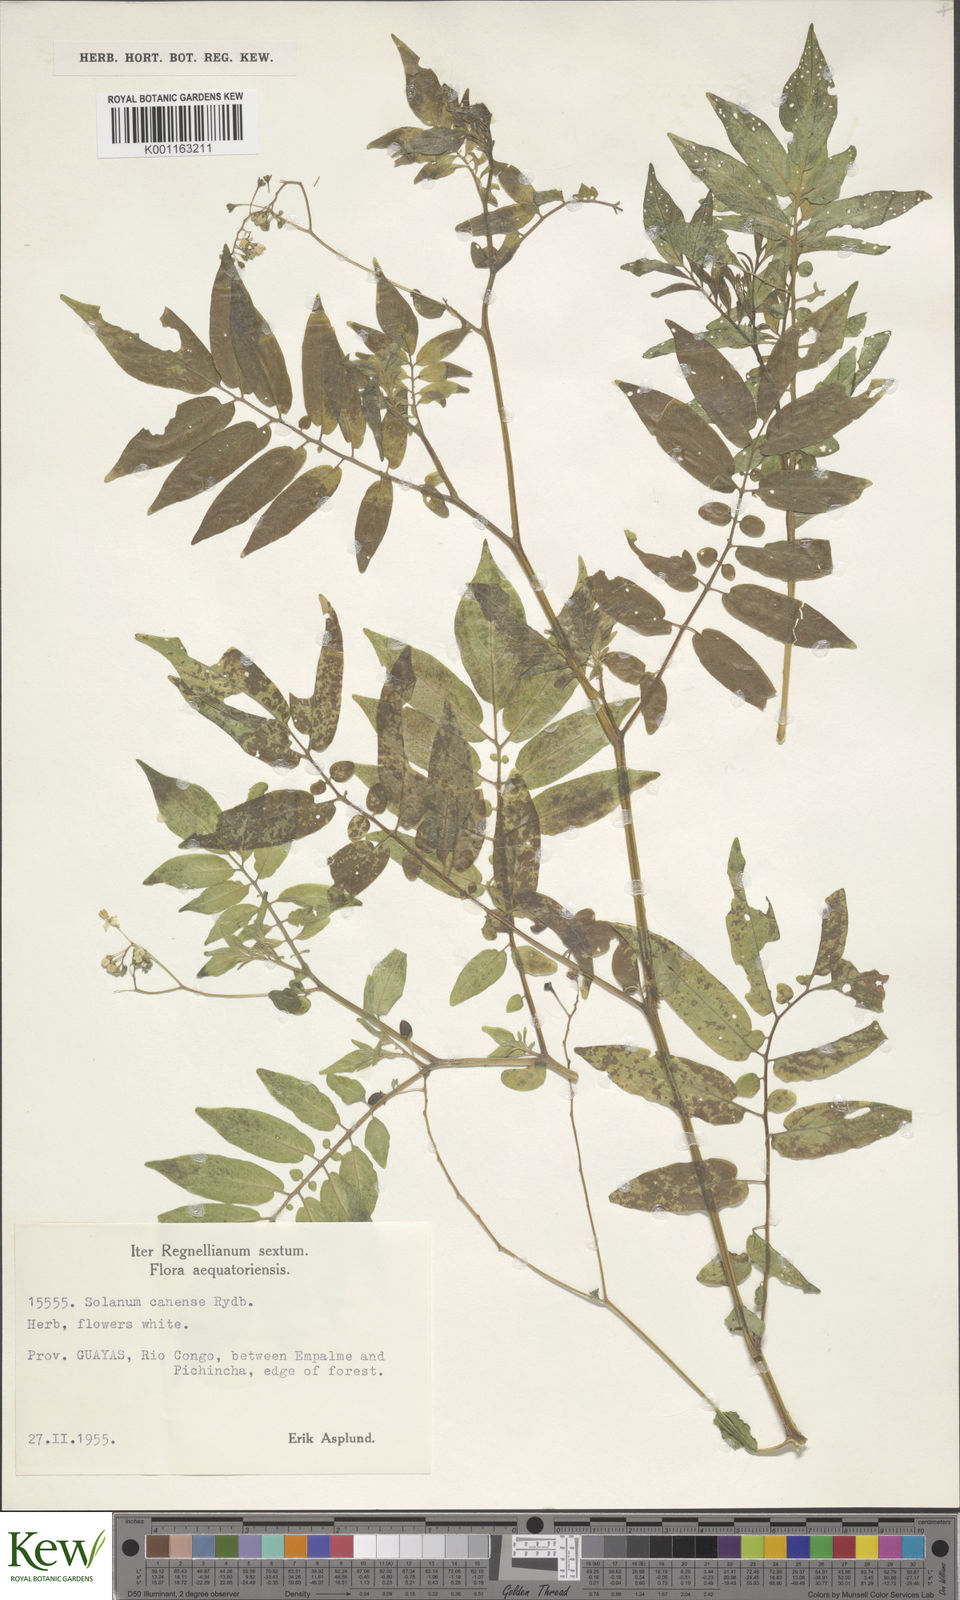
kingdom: Plantae
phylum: Tracheophyta
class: Magnoliopsida
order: Solanales
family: Solanaceae
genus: Solanum
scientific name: Solanum canense
